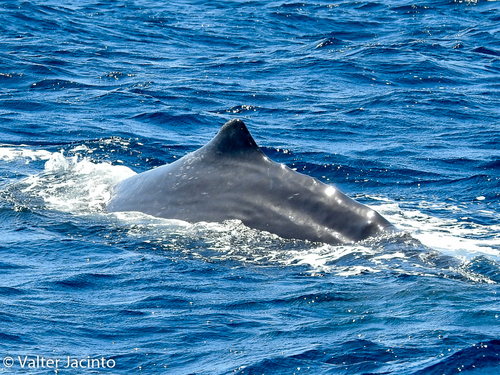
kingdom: Animalia
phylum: Chordata
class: Mammalia
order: Cetacea
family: Physeteridae
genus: Physeter
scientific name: Physeter macrocephalus
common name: Sperm whale
